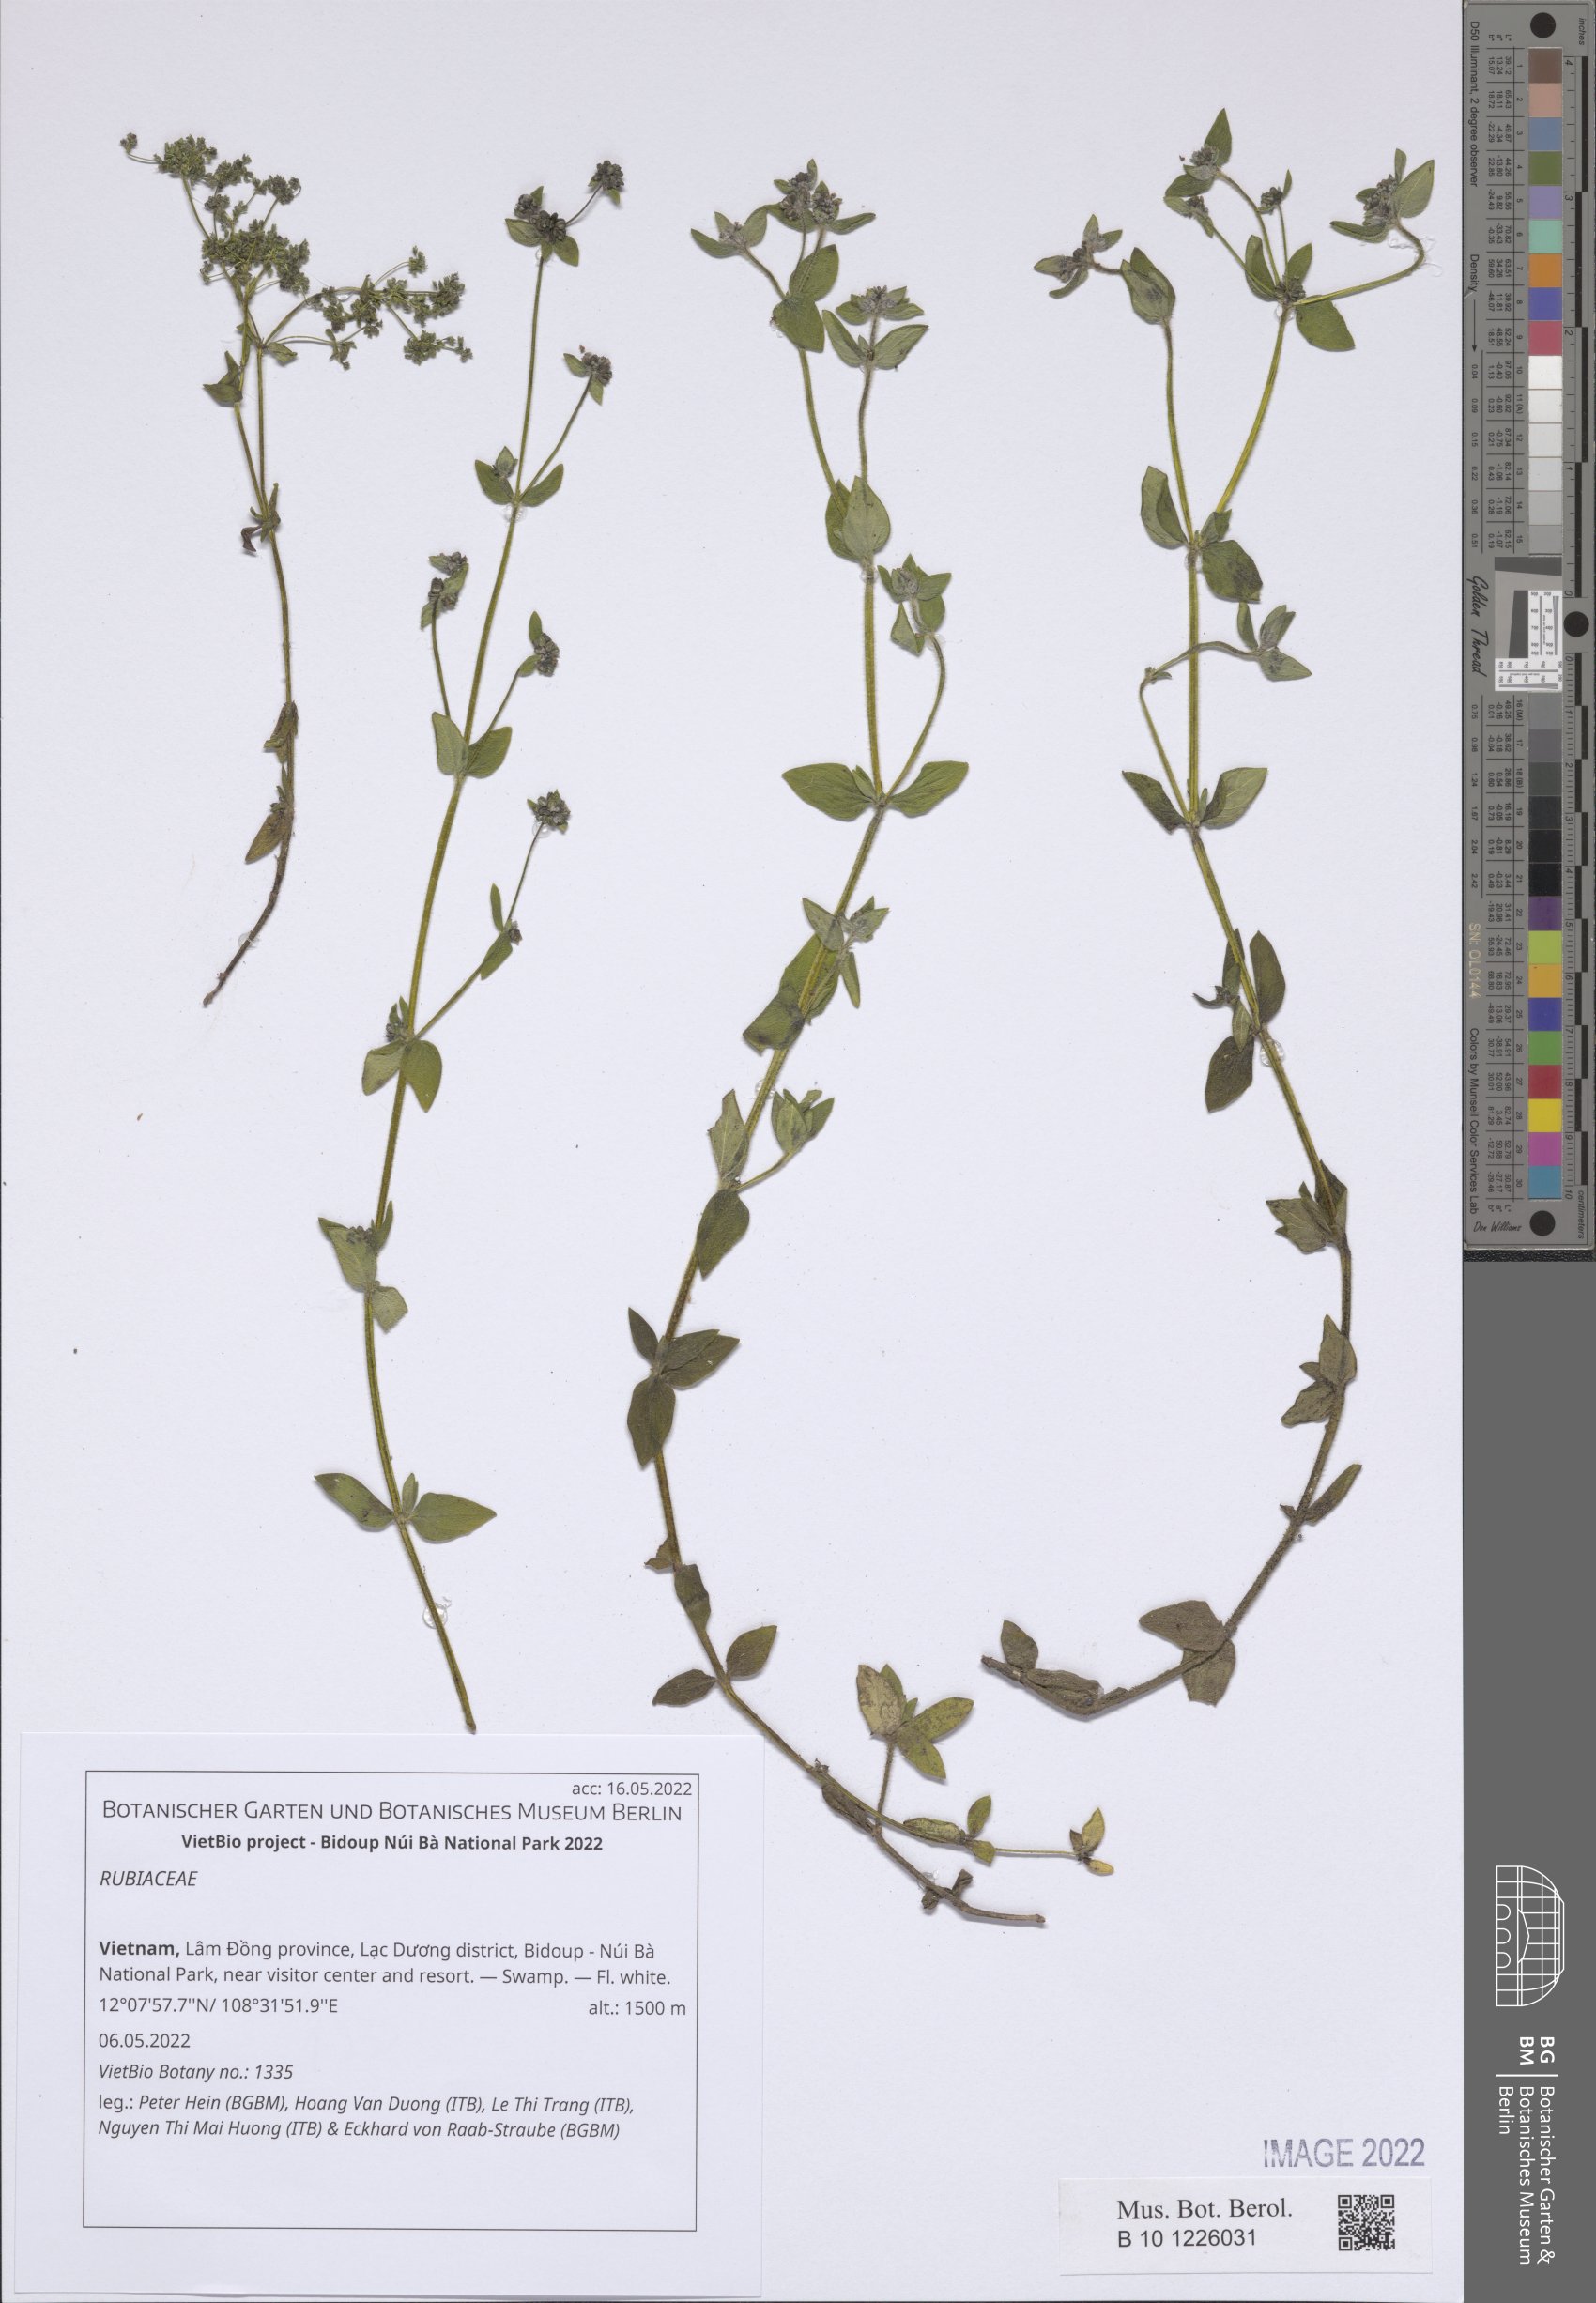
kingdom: Plantae
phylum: Tracheophyta
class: Magnoliopsida
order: Gentianales
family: Rubiaceae
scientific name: Rubiaceae
